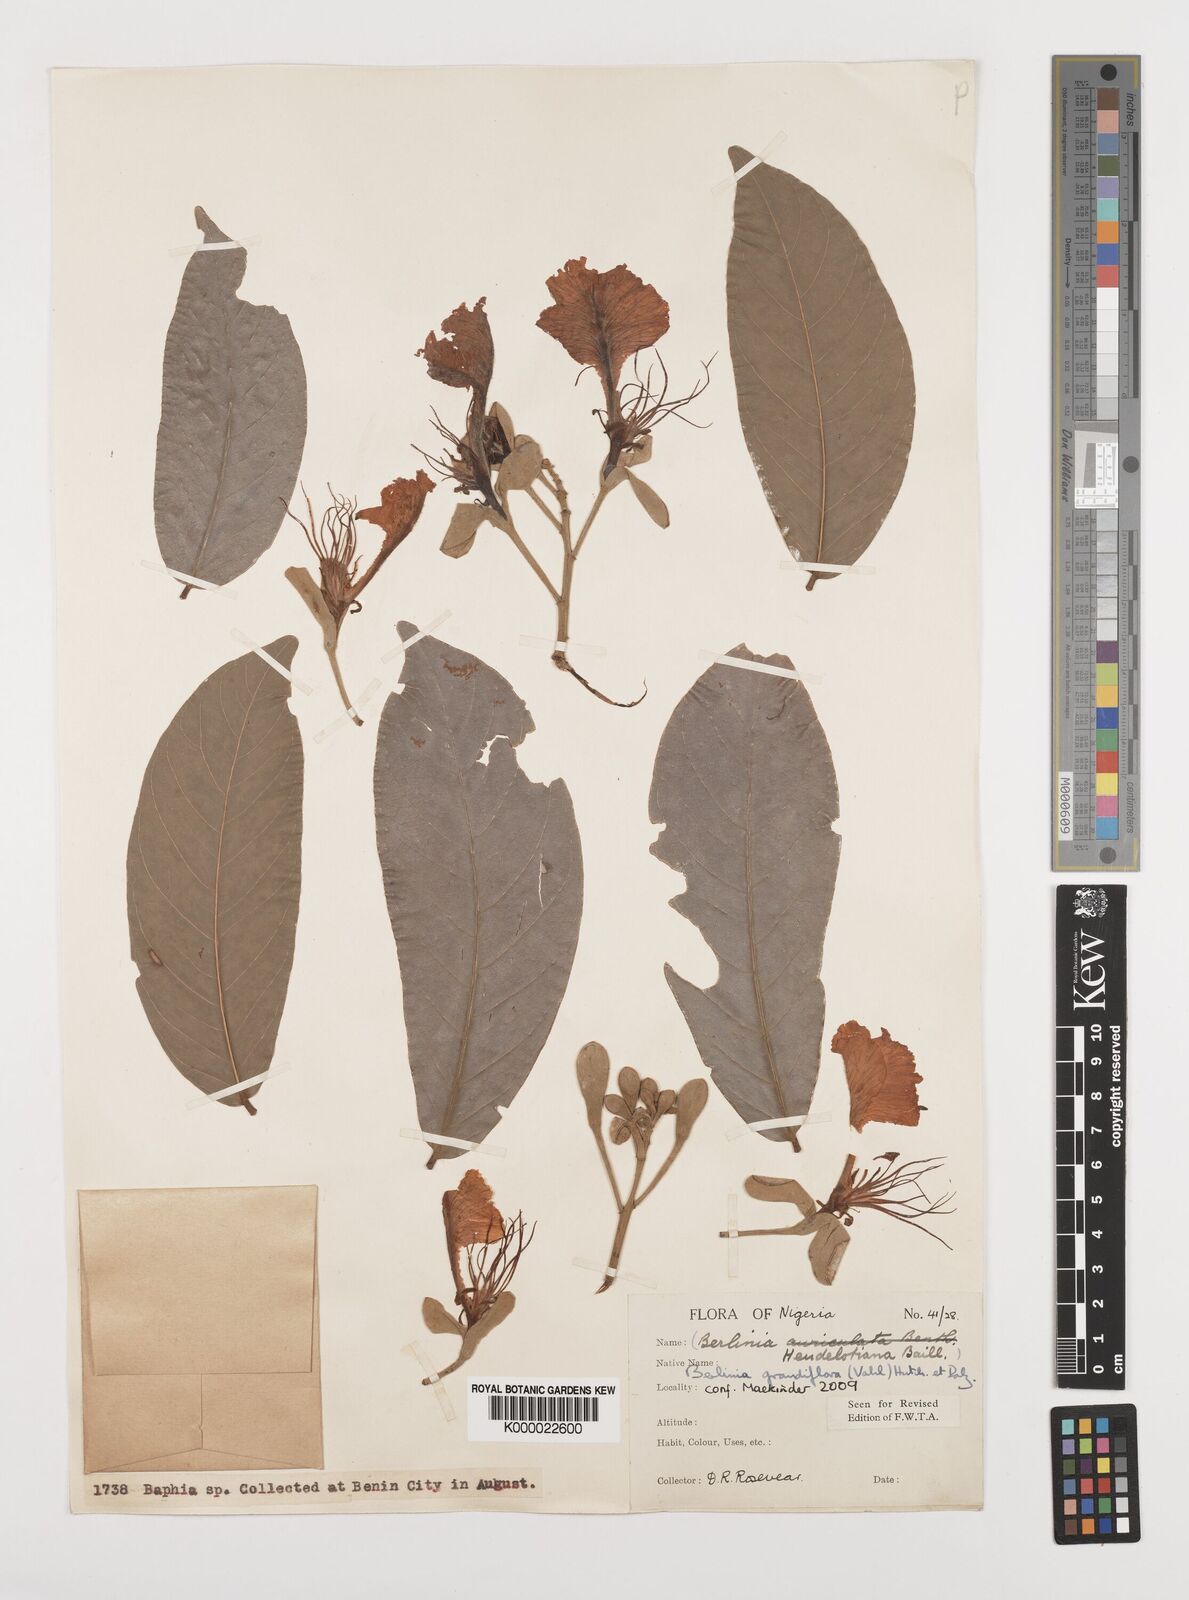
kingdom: Plantae
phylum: Tracheophyta
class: Magnoliopsida
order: Fabales
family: Fabaceae
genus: Berlinia
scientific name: Berlinia grandiflora
